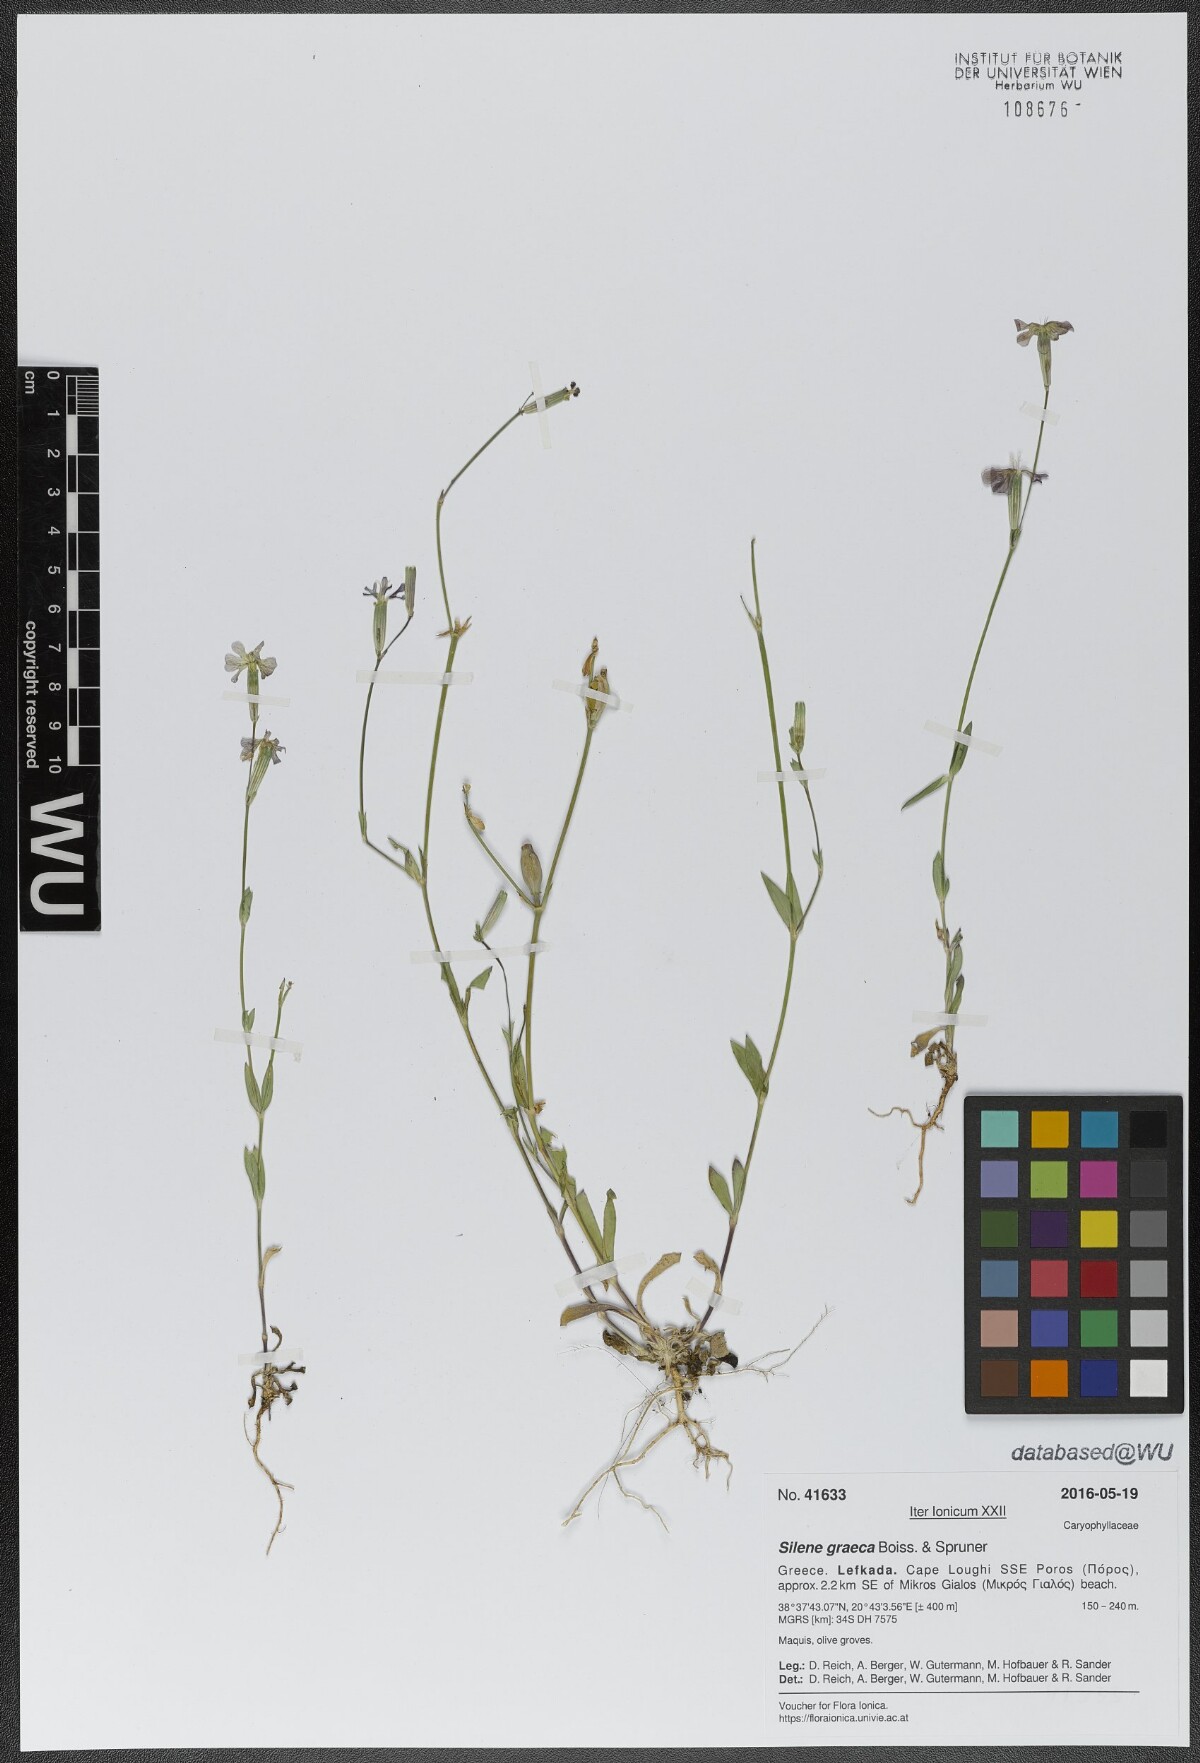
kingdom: Plantae
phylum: Tracheophyta
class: Magnoliopsida
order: Caryophyllales
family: Caryophyllaceae
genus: Silene
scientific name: Silene graeca
